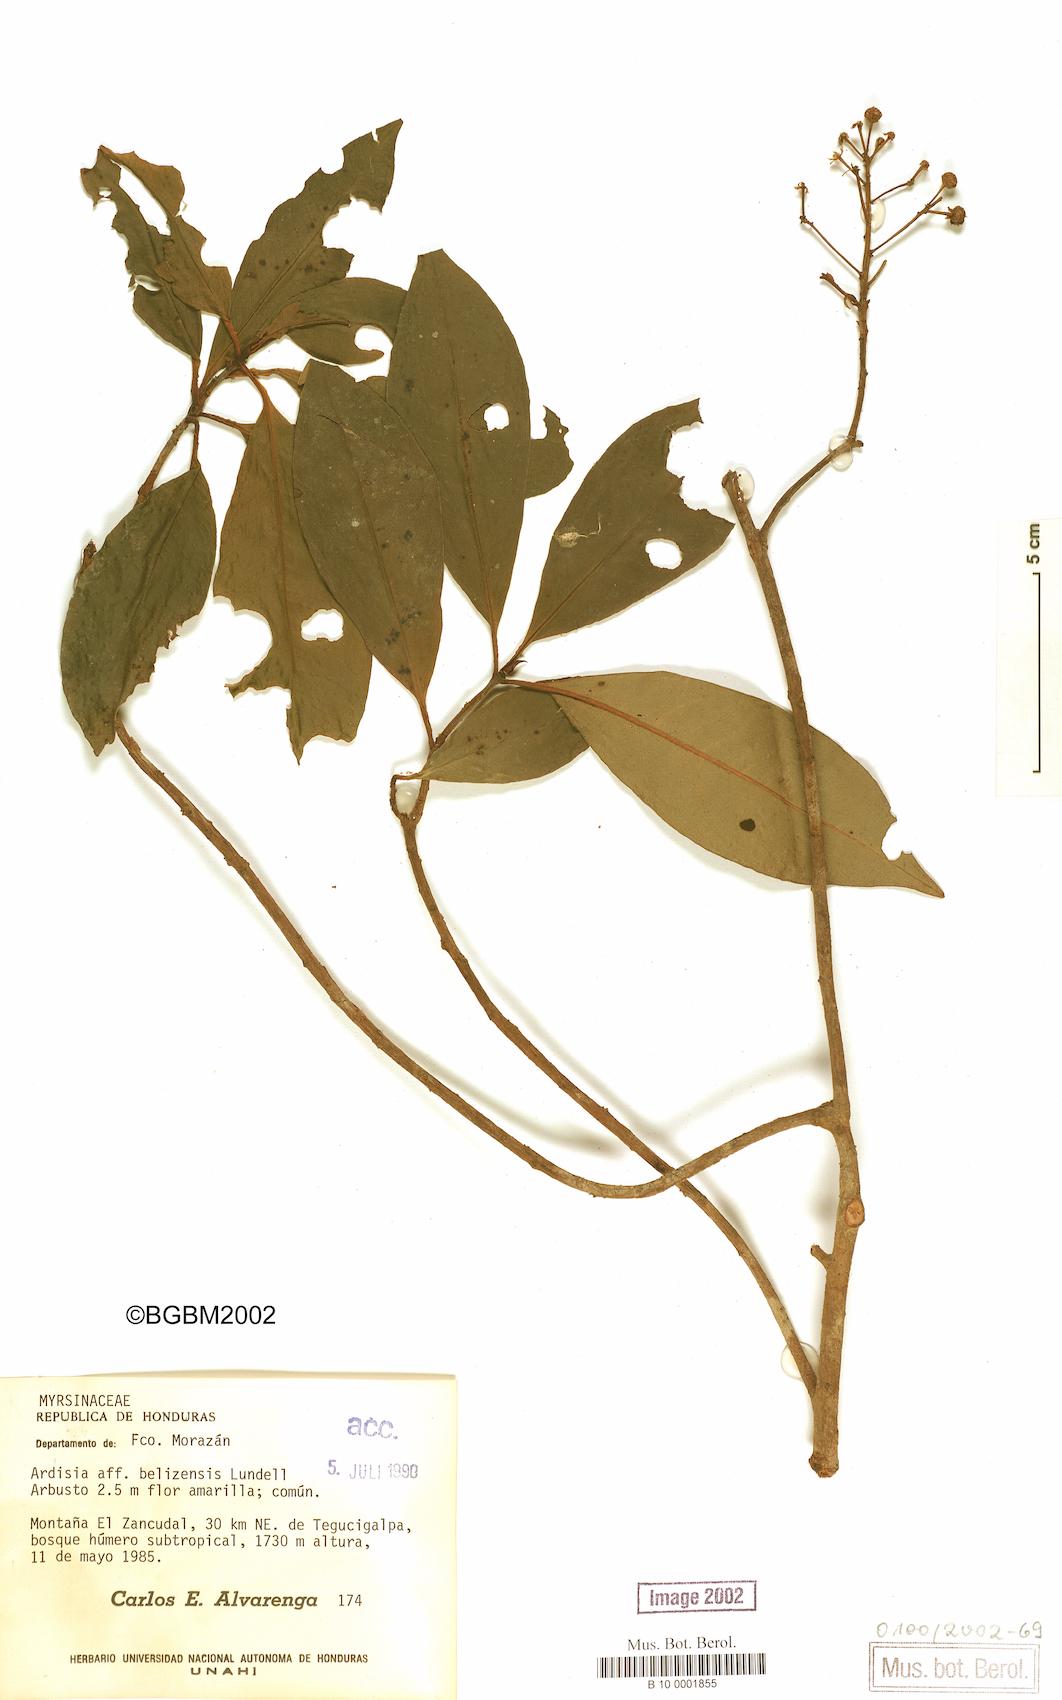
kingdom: Plantae
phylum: Tracheophyta
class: Magnoliopsida
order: Ericales
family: Primulaceae
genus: Ardisia
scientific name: Ardisia compressa
